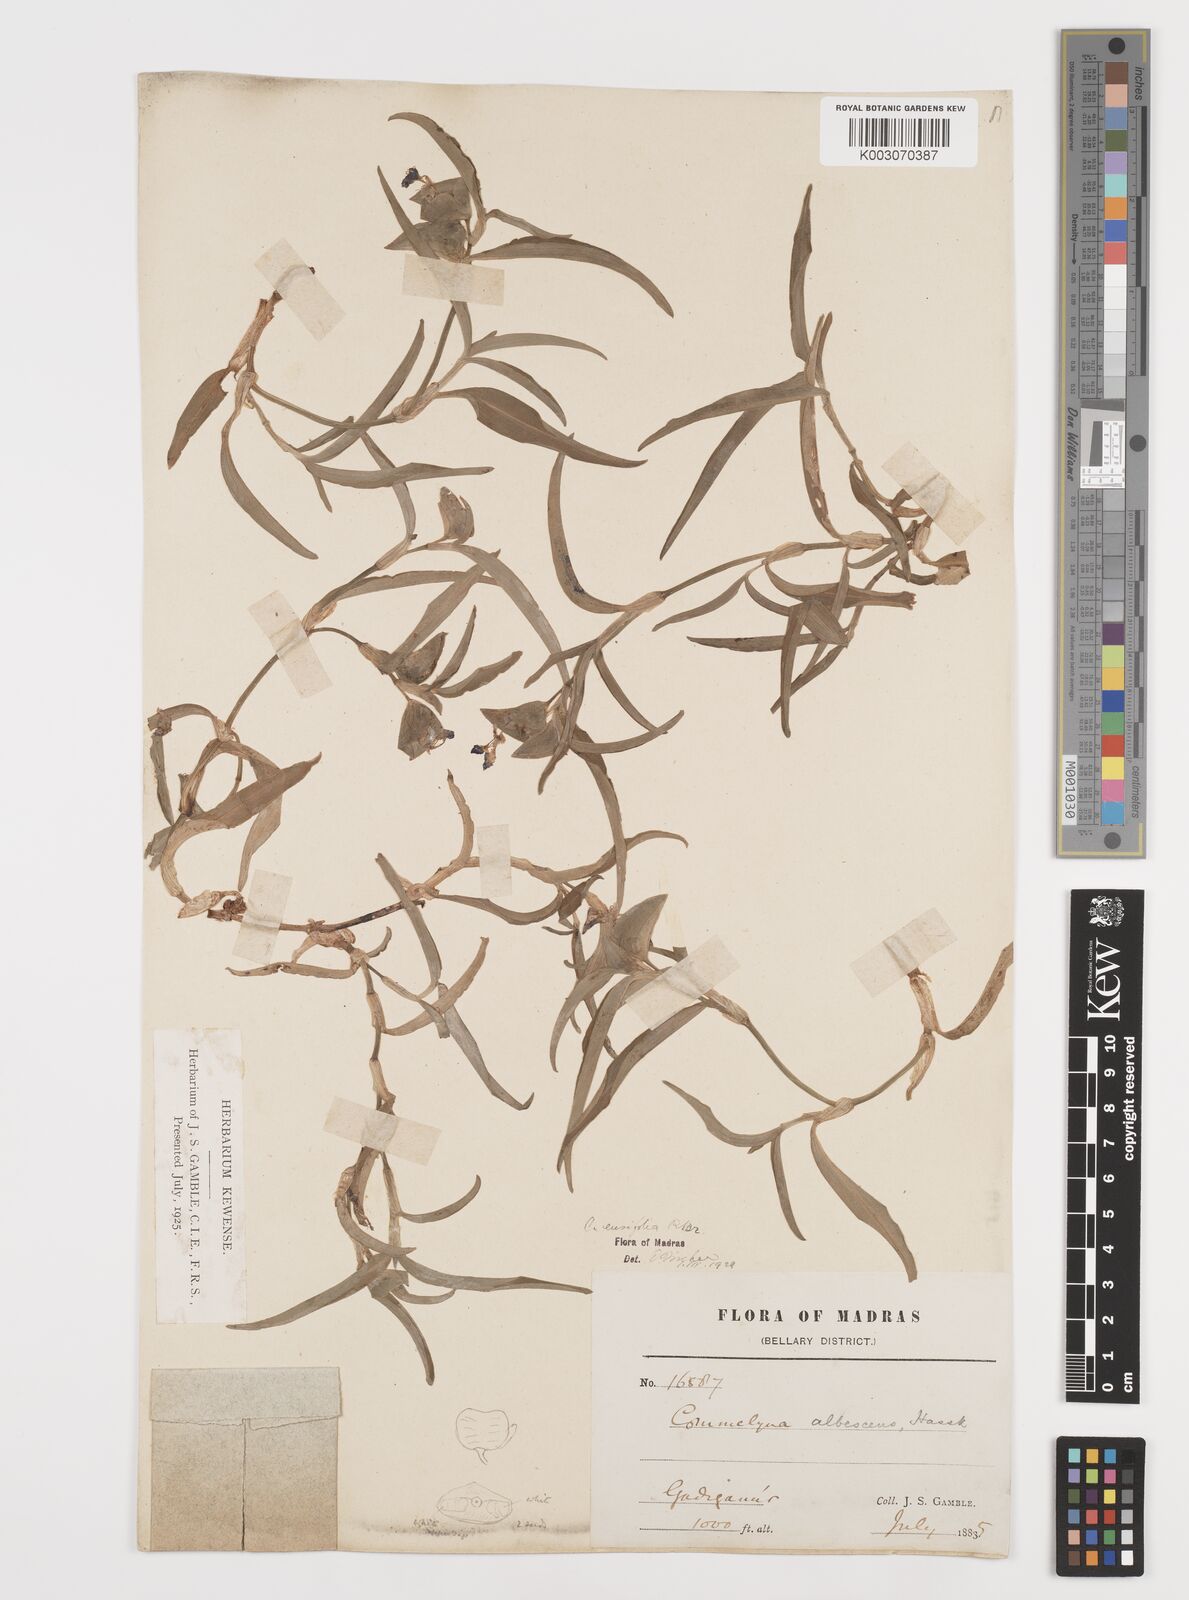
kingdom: Plantae
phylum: Tracheophyta
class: Liliopsida
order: Commelinales
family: Commelinaceae
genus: Commelina
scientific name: Commelina ensifolia
